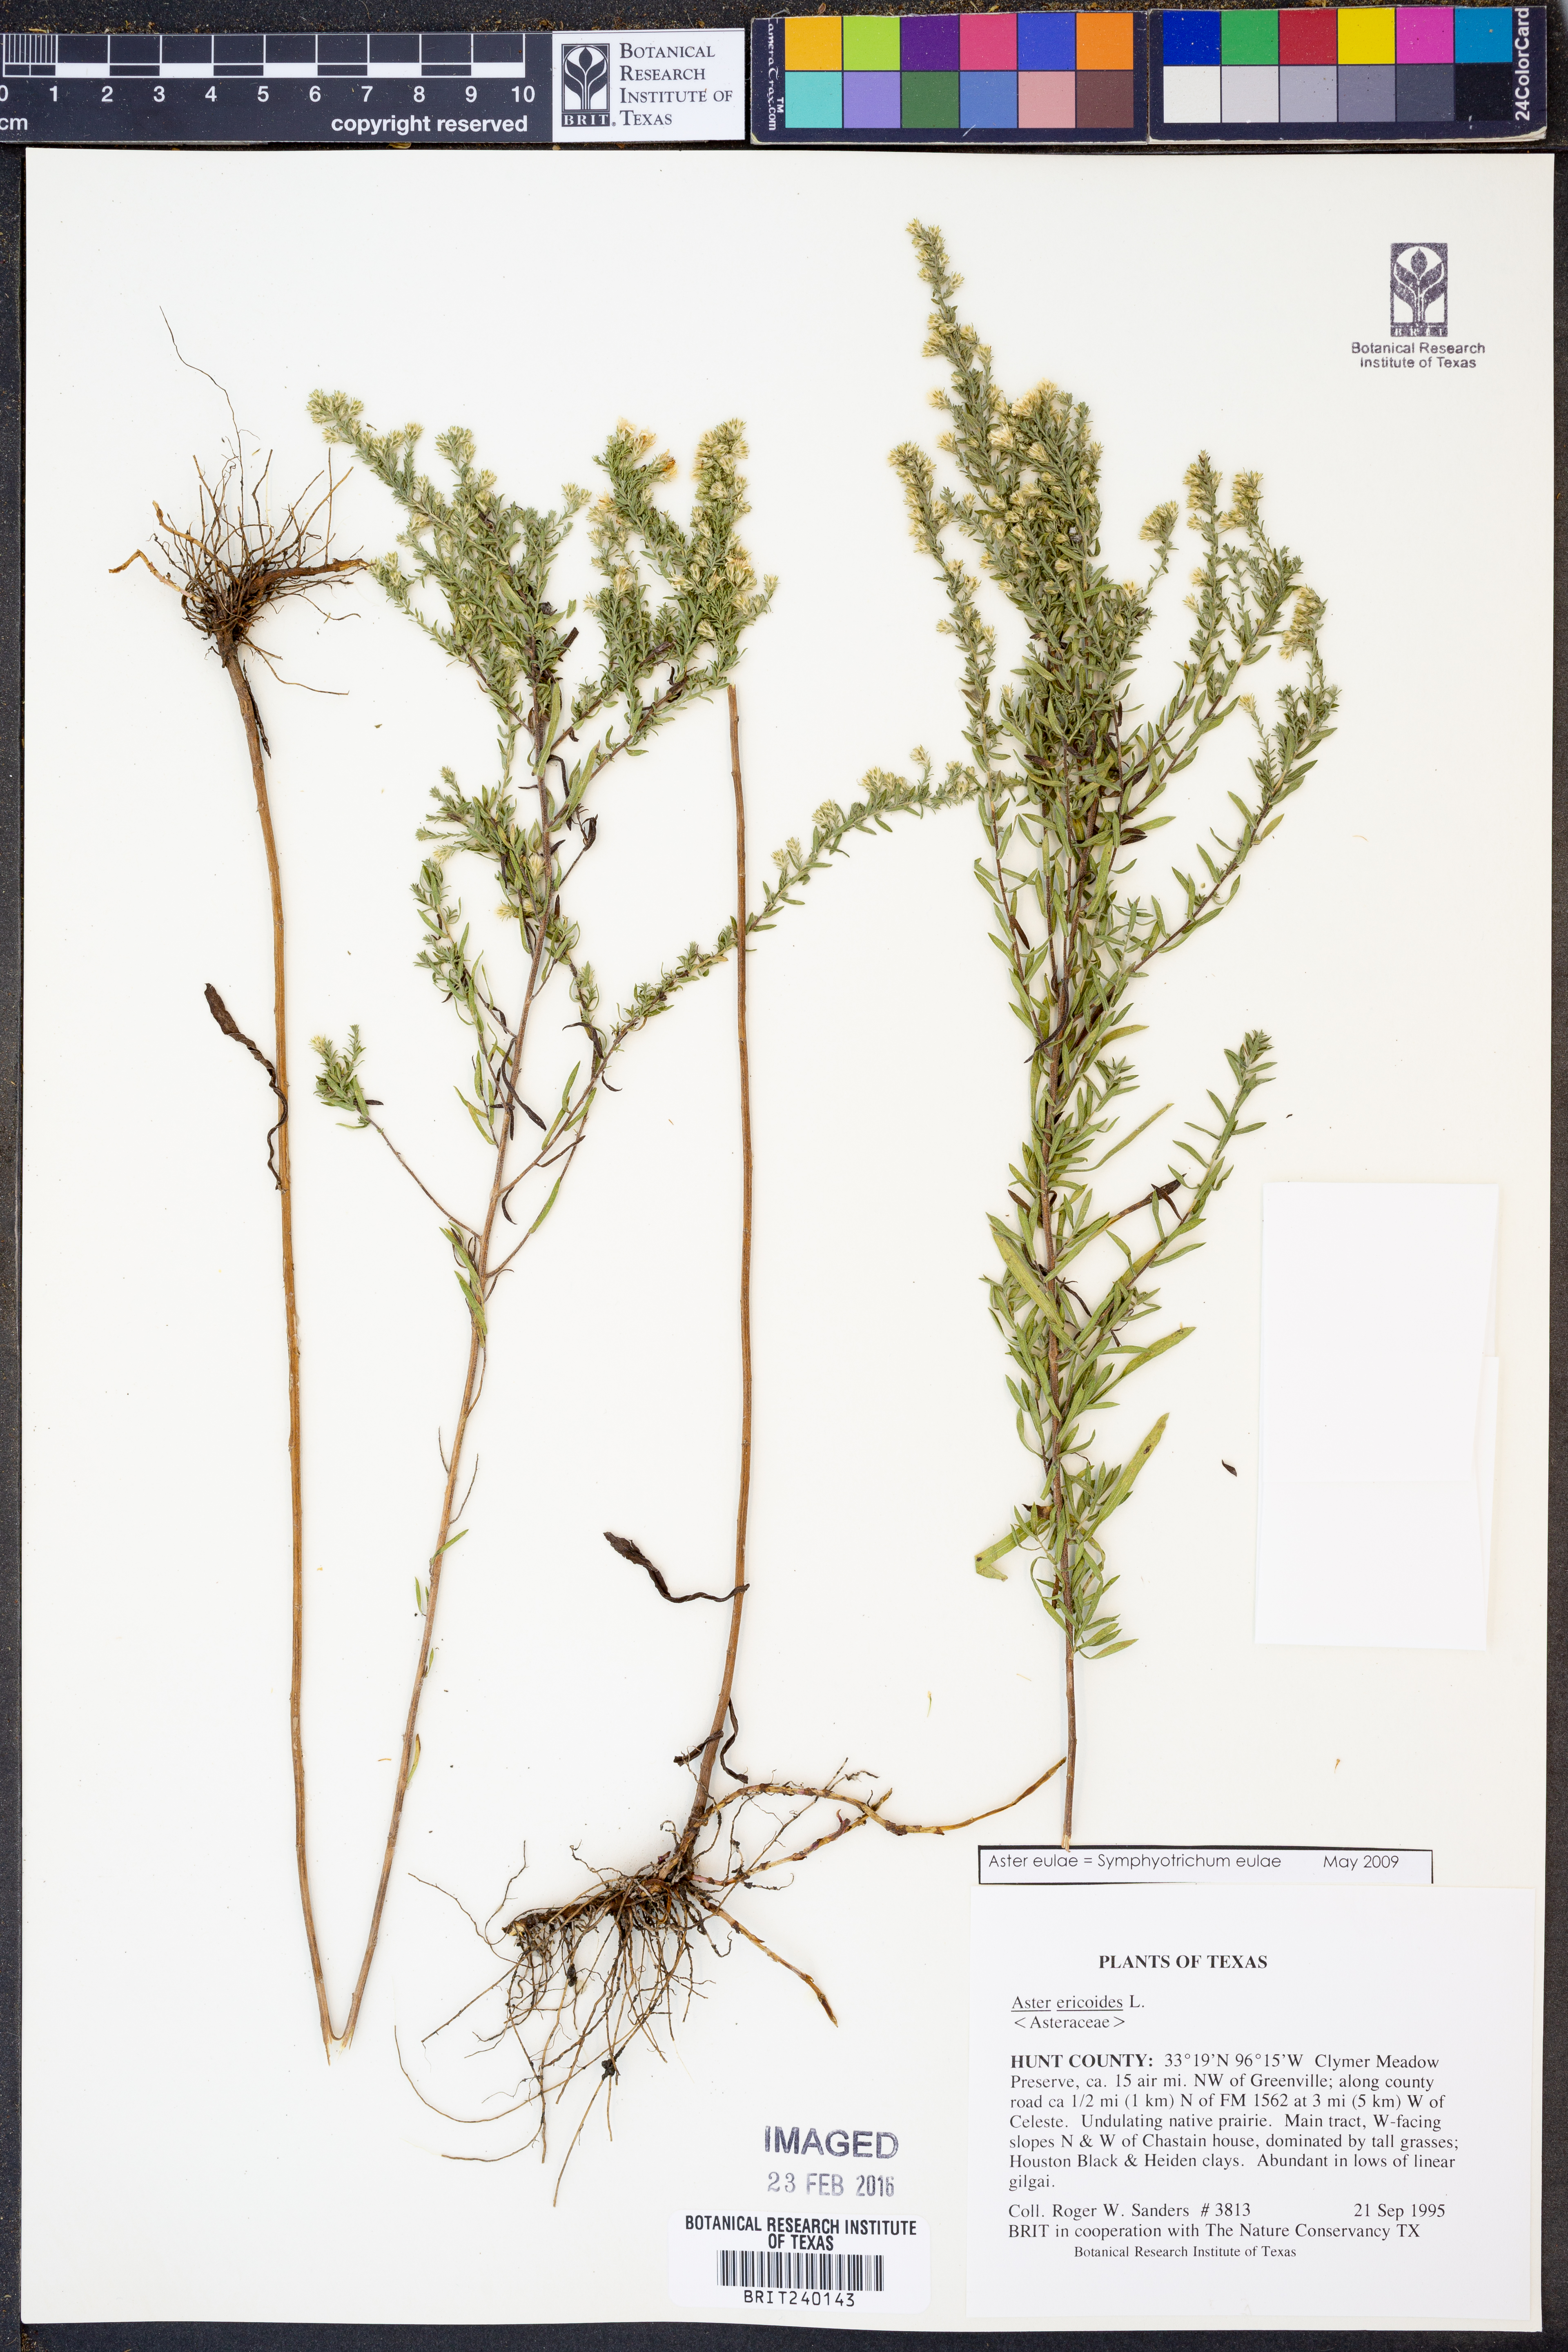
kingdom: Plantae
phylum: Tracheophyta
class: Magnoliopsida
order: Asterales
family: Asteraceae
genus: Symphyotrichum
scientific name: Symphyotrichum eulae
